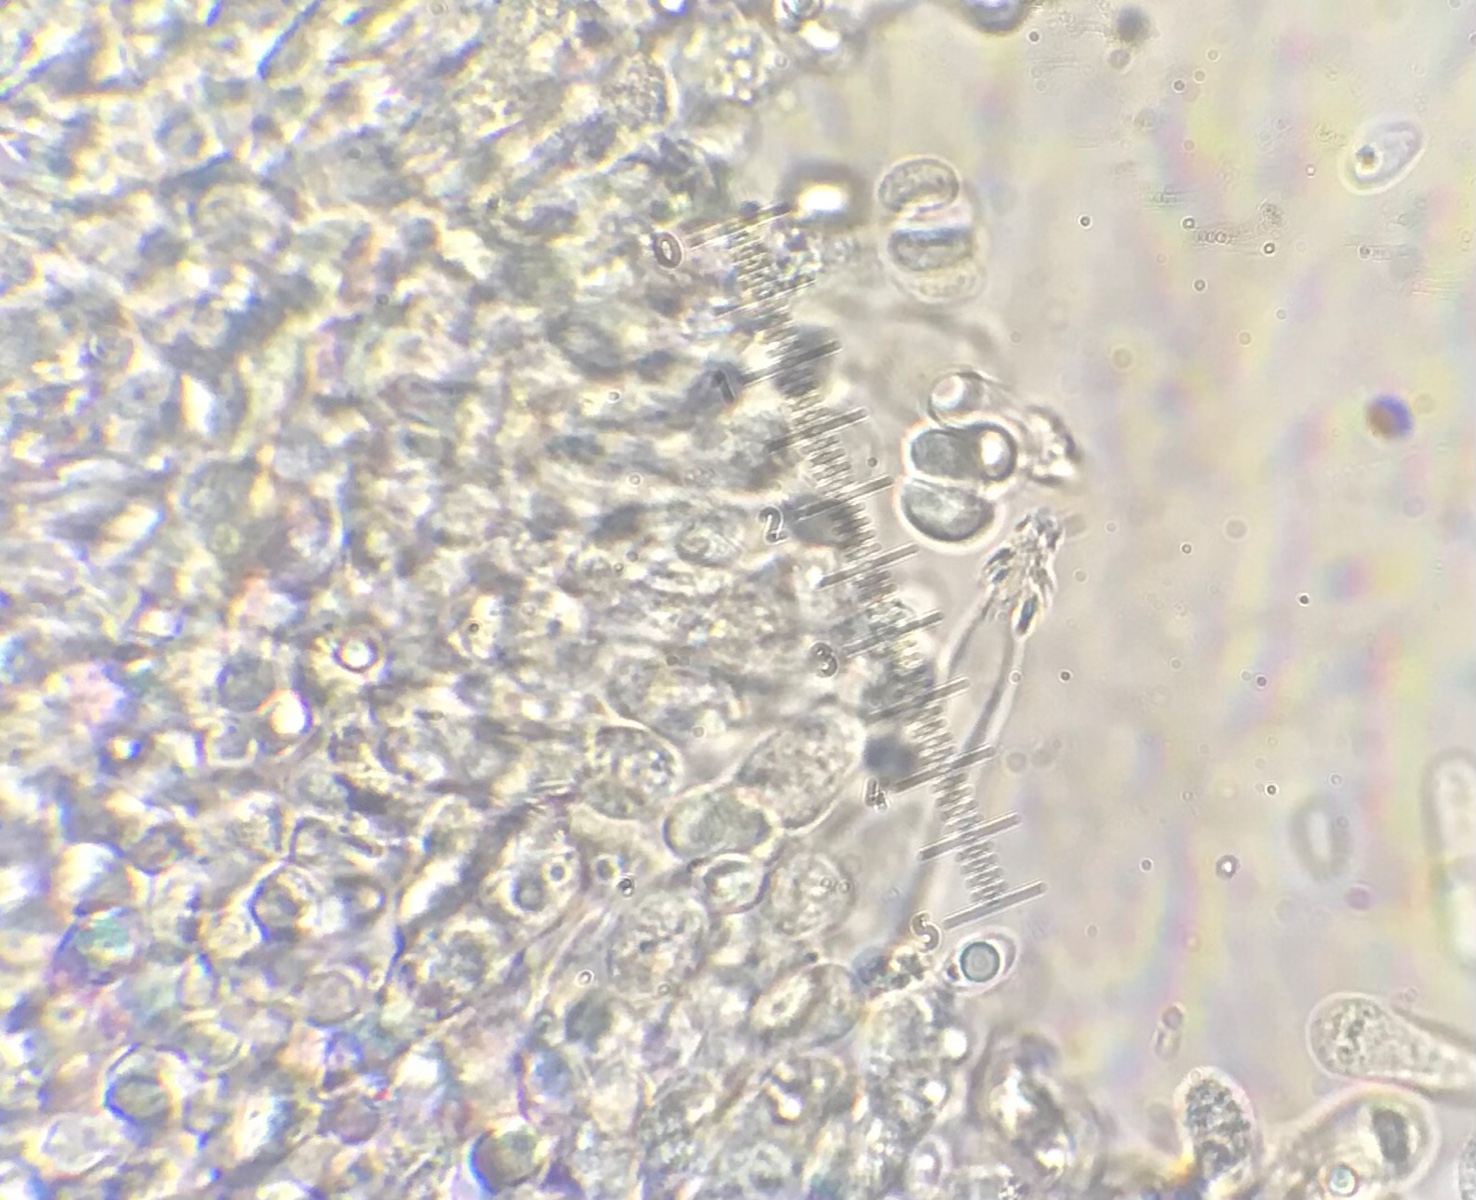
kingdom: Fungi
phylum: Basidiomycota
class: Agaricomycetes
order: Agaricales
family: Tricholomataceae
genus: Melanoleuca
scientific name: Melanoleuca polioleuca
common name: almindelig munkehat
